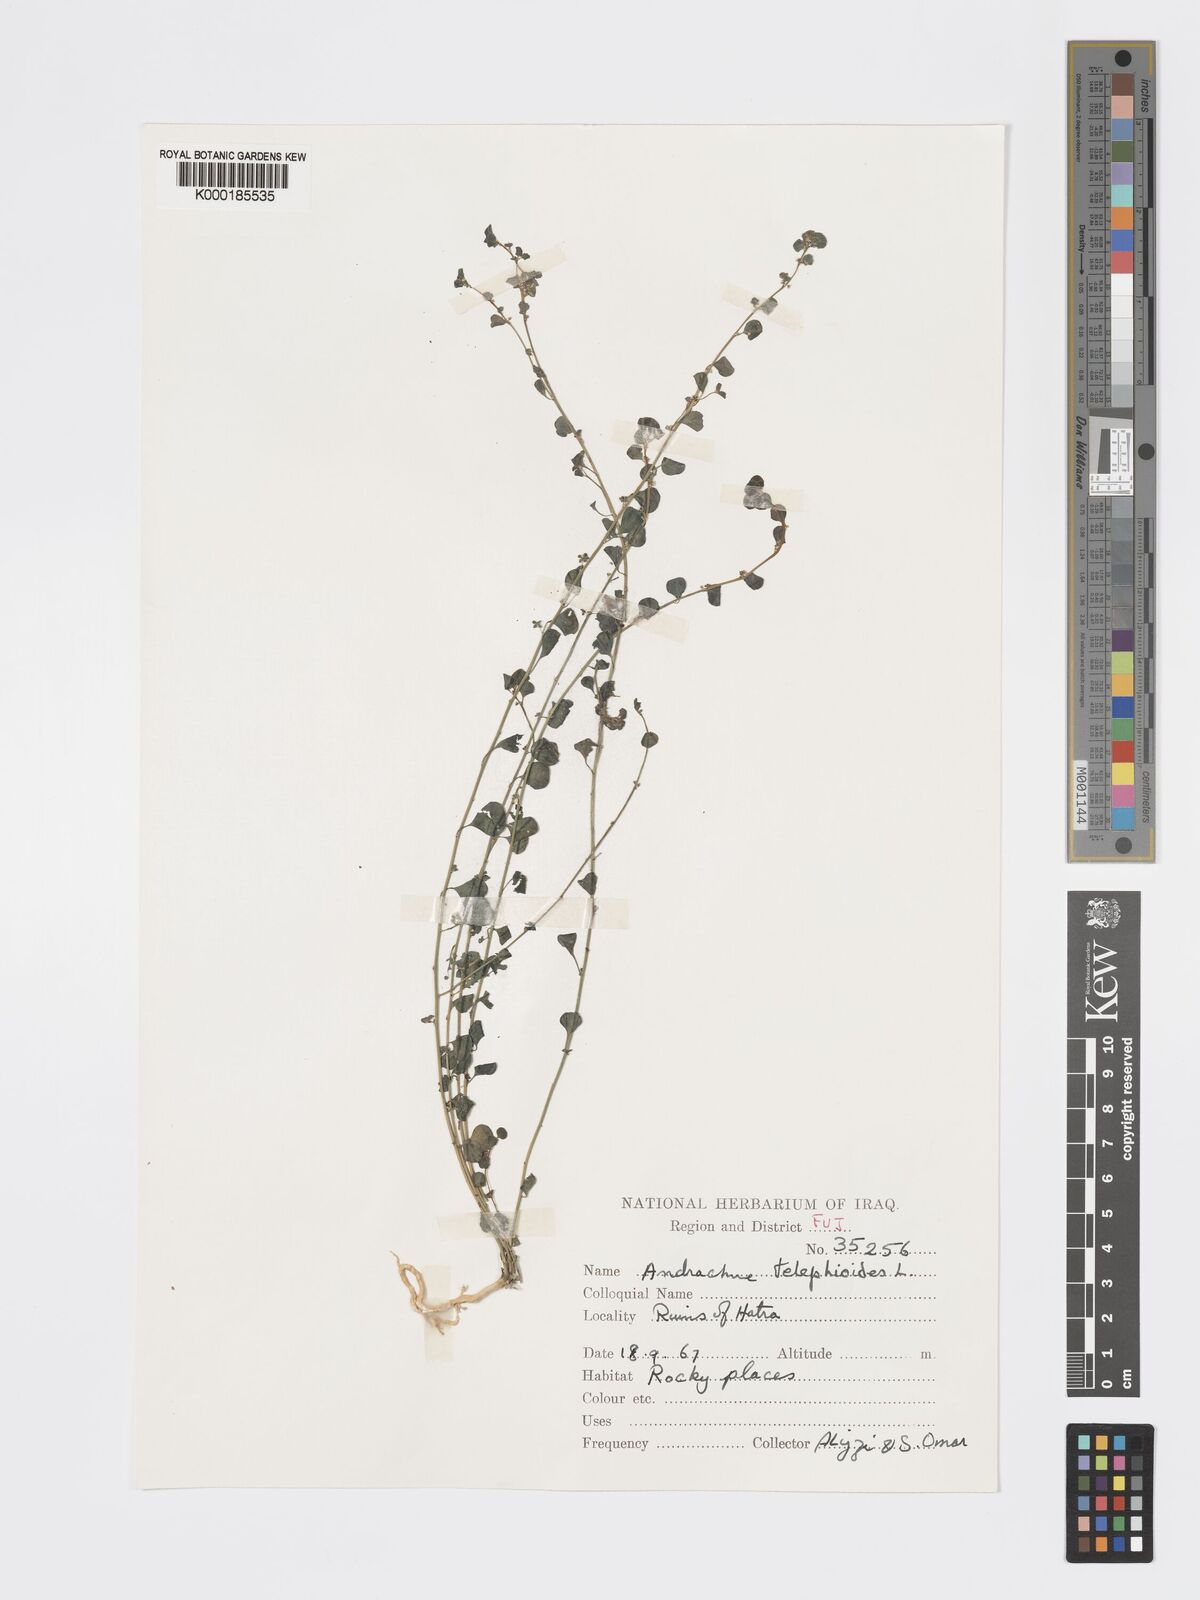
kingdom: Plantae
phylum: Tracheophyta
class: Magnoliopsida
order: Malpighiales
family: Phyllanthaceae
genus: Andrachne
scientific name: Andrachne
